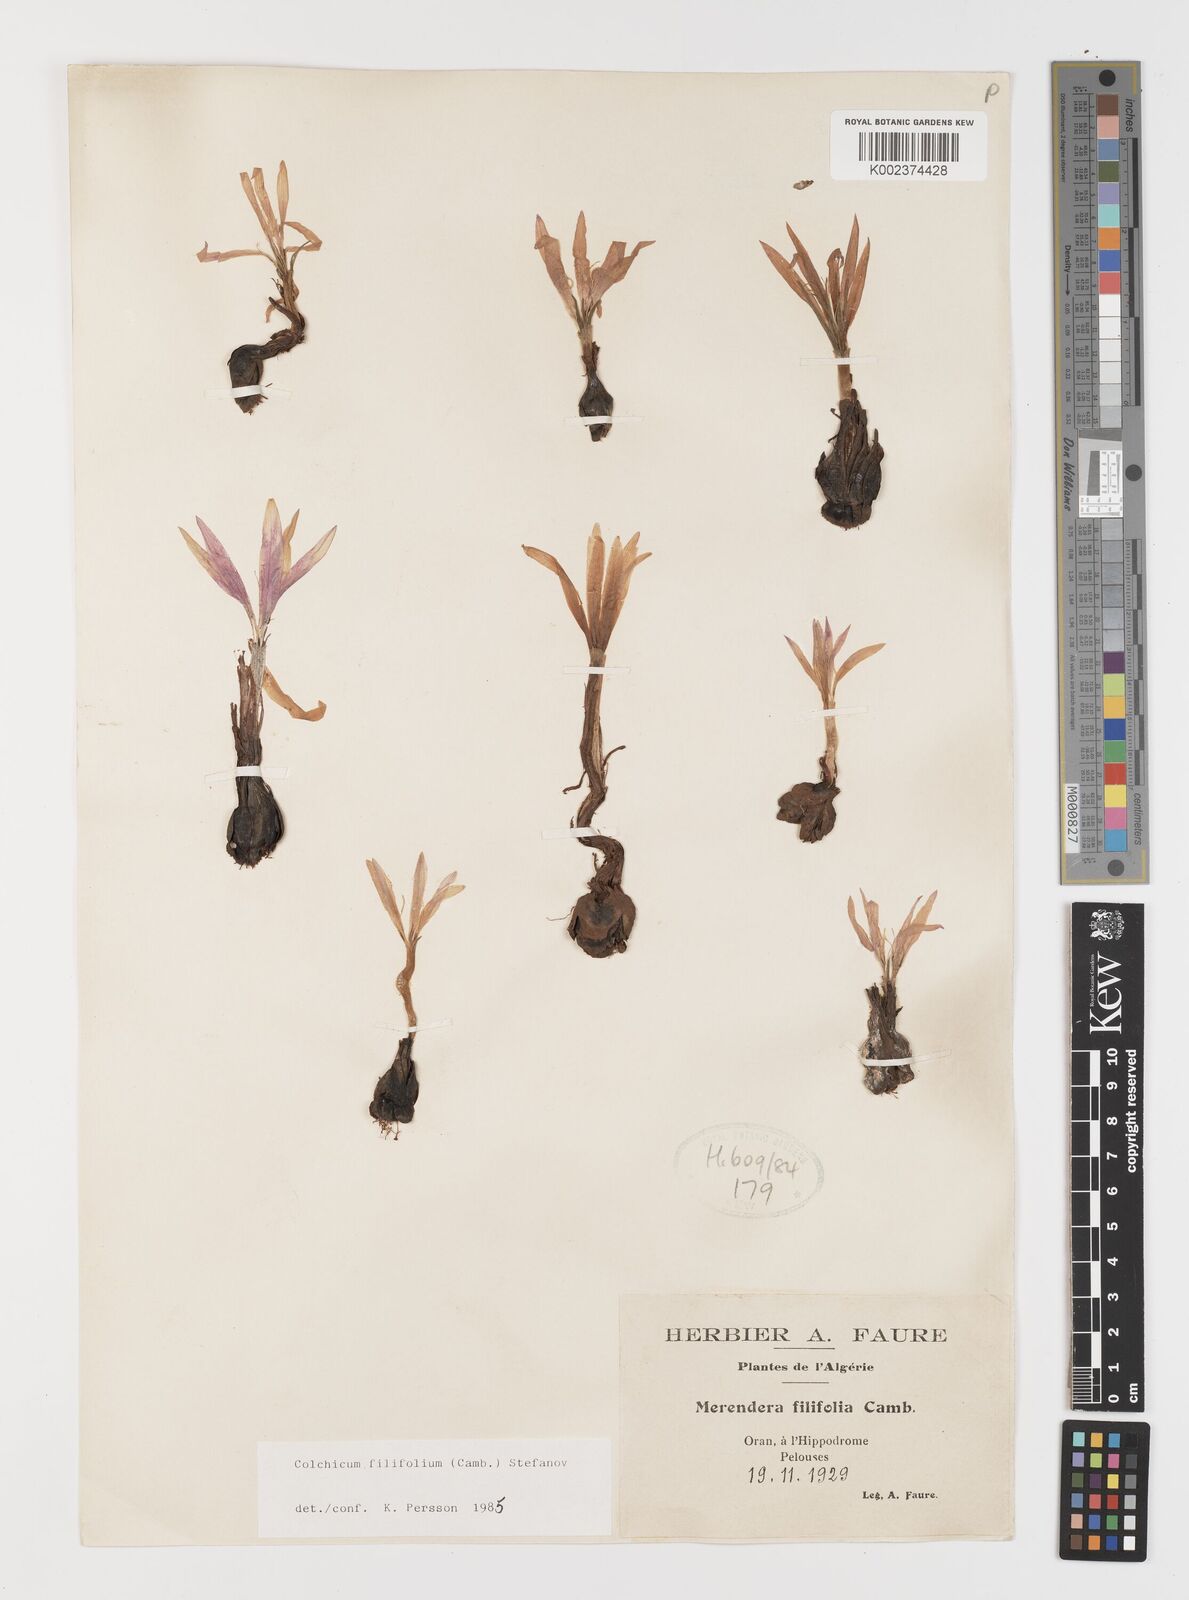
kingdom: Plantae
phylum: Tracheophyta
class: Liliopsida
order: Liliales
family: Colchicaceae
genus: Colchicum
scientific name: Colchicum filifolium
